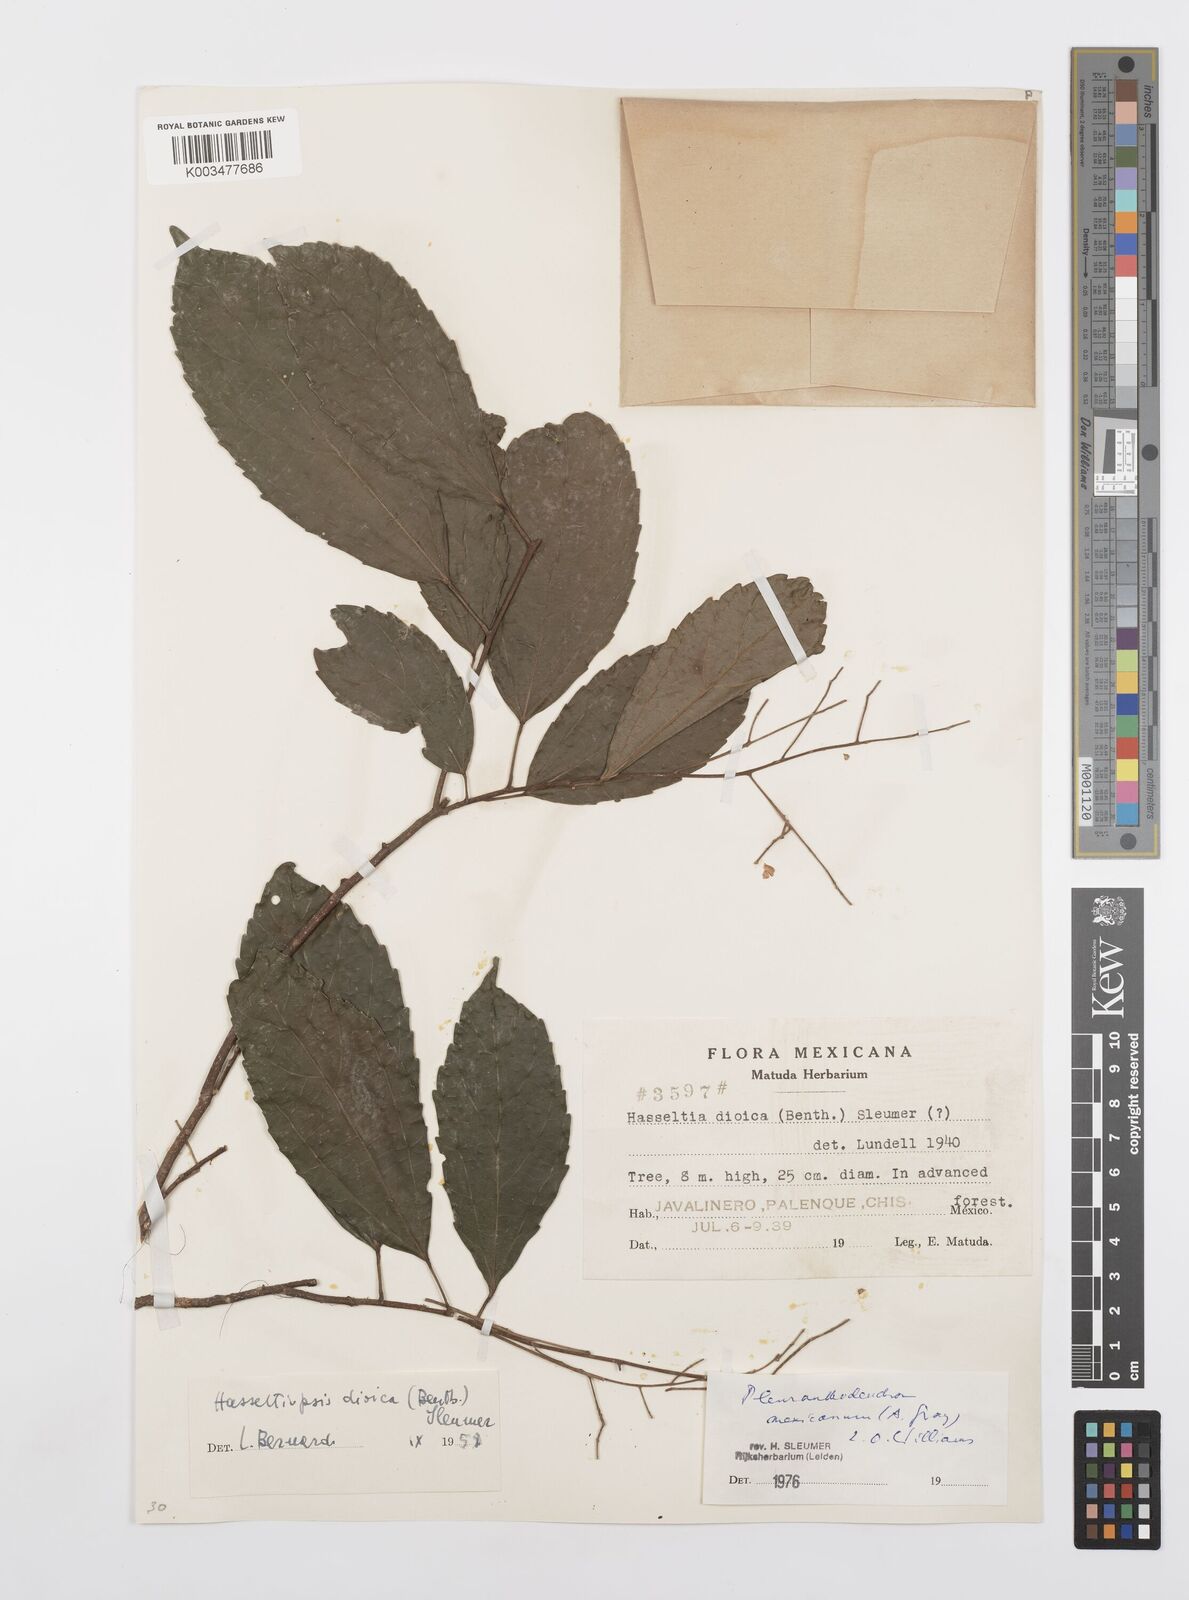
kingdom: Plantae
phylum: Tracheophyta
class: Magnoliopsida
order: Malpighiales
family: Salicaceae
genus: Pleuranthodendron
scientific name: Pleuranthodendron lindenii
